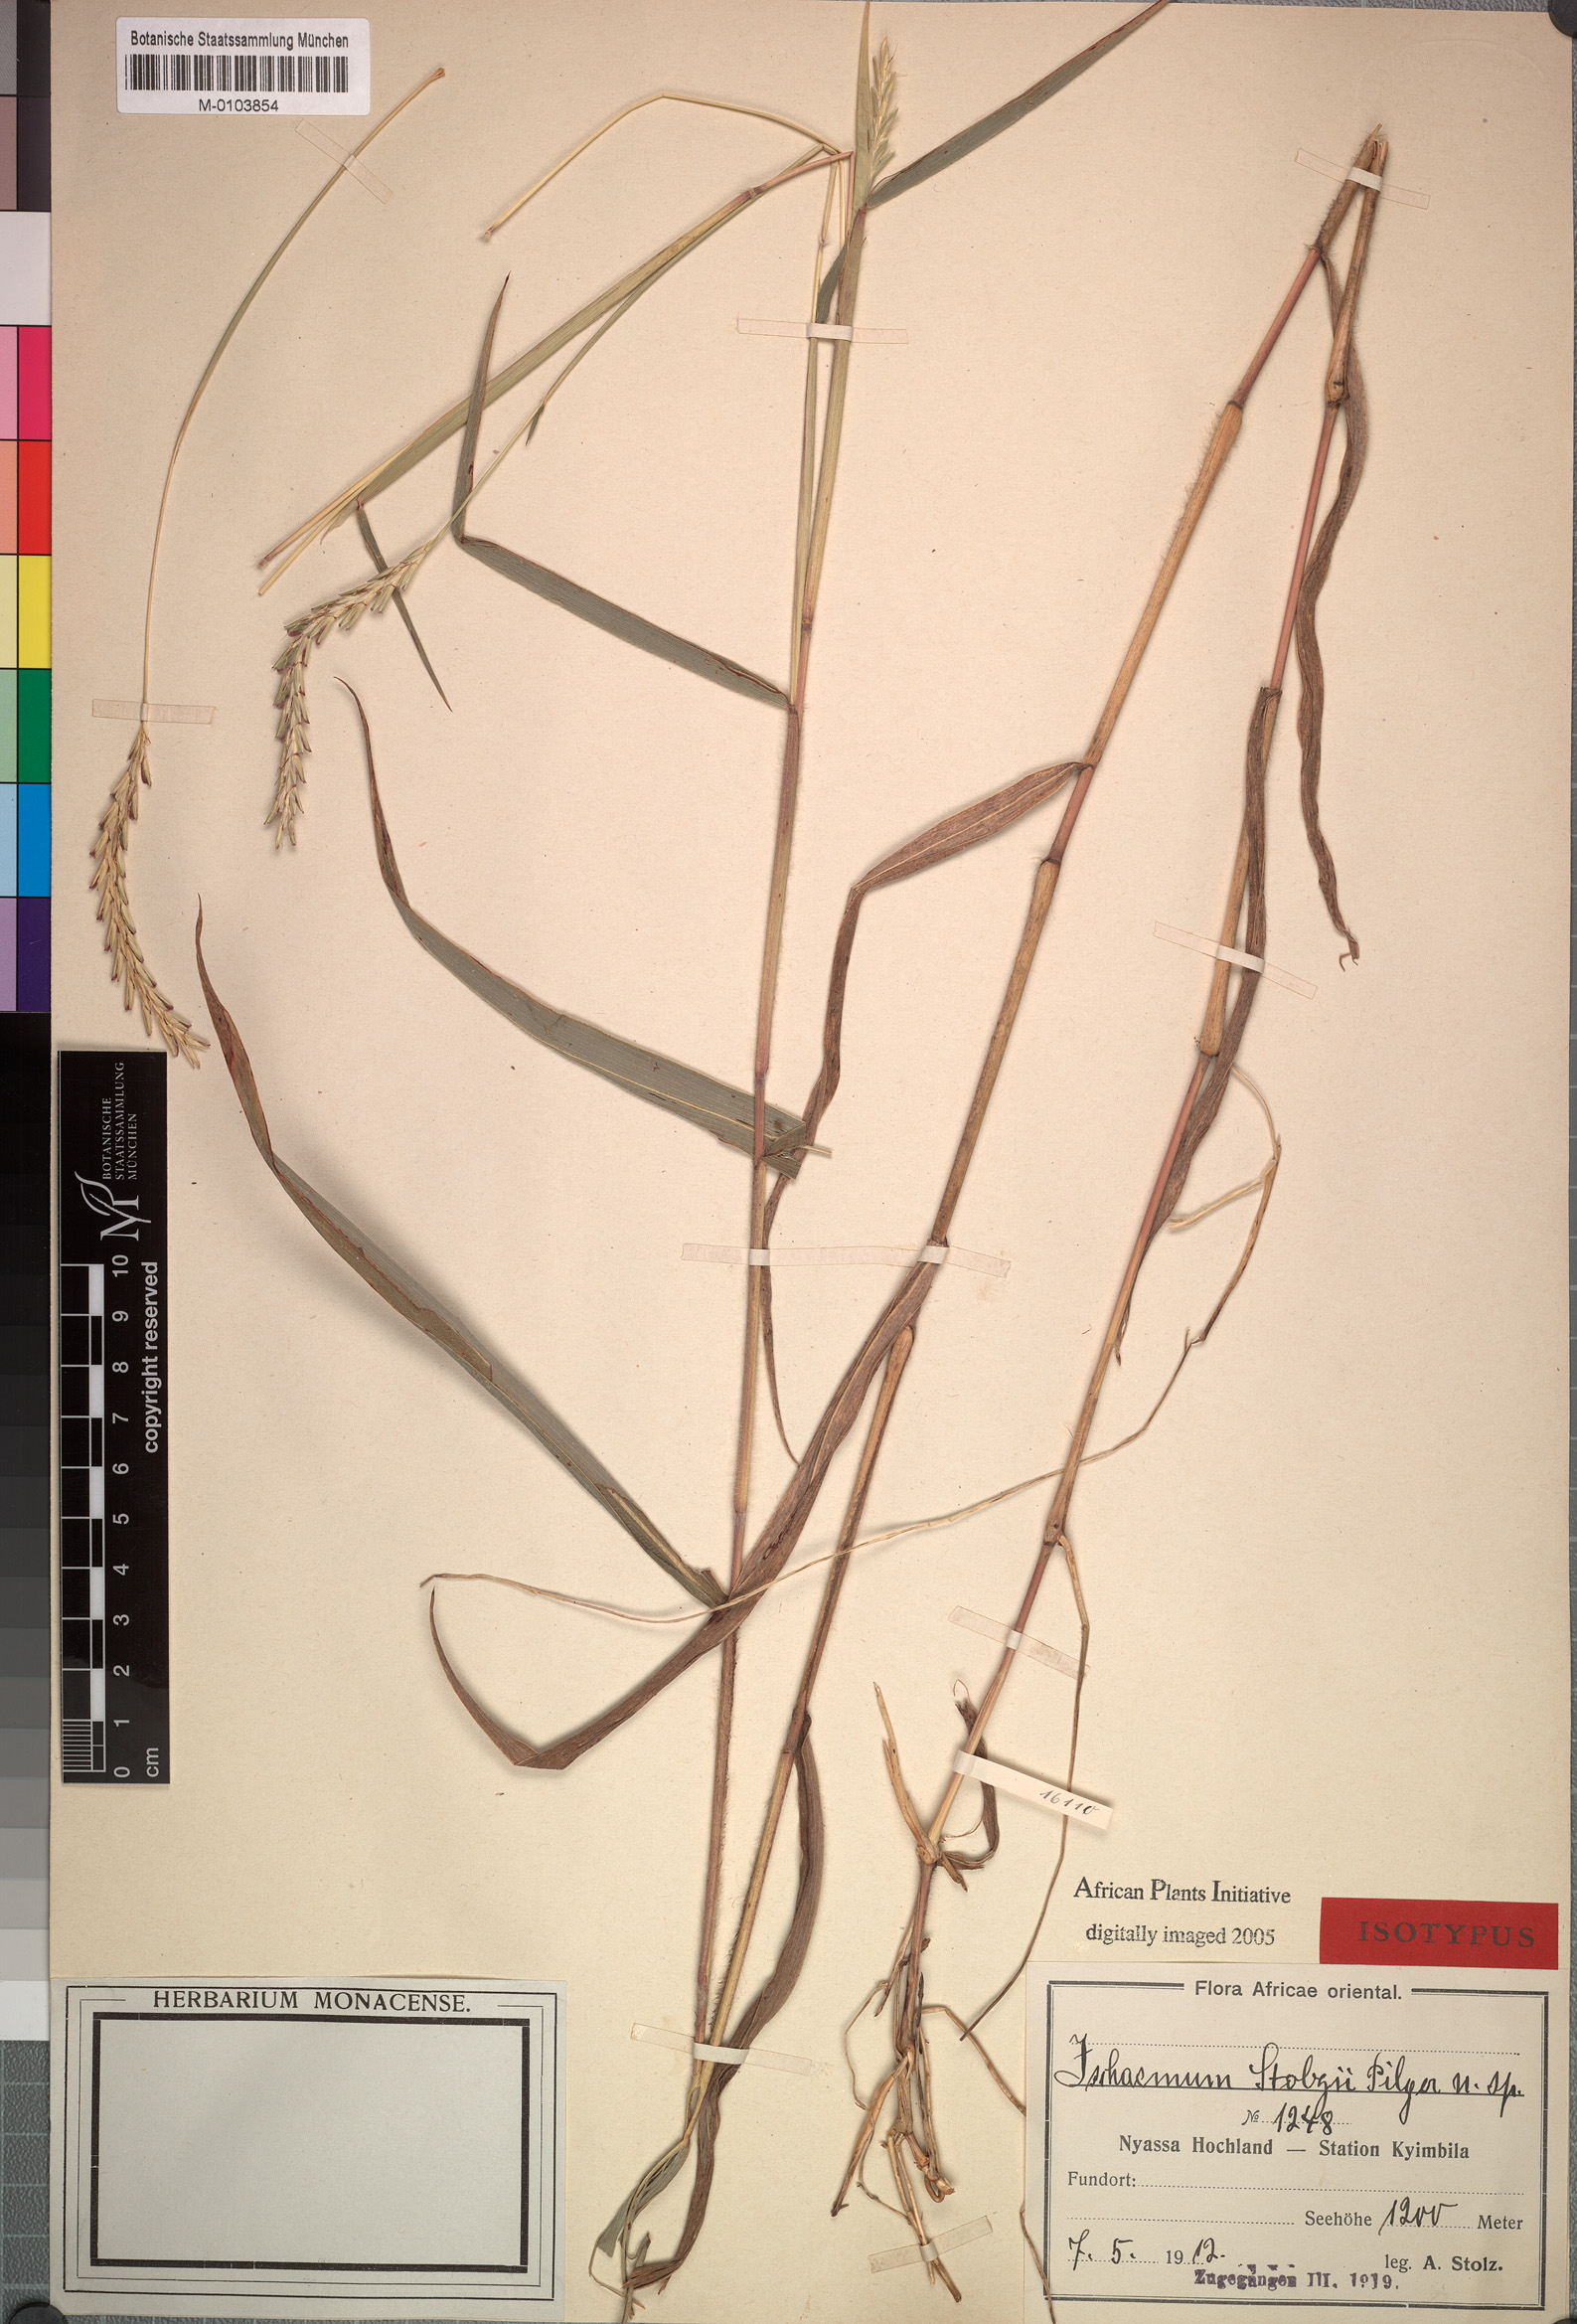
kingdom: Plantae
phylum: Tracheophyta
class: Liliopsida
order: Poales
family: Poaceae
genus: Andropterum
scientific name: Andropterum stolzii
